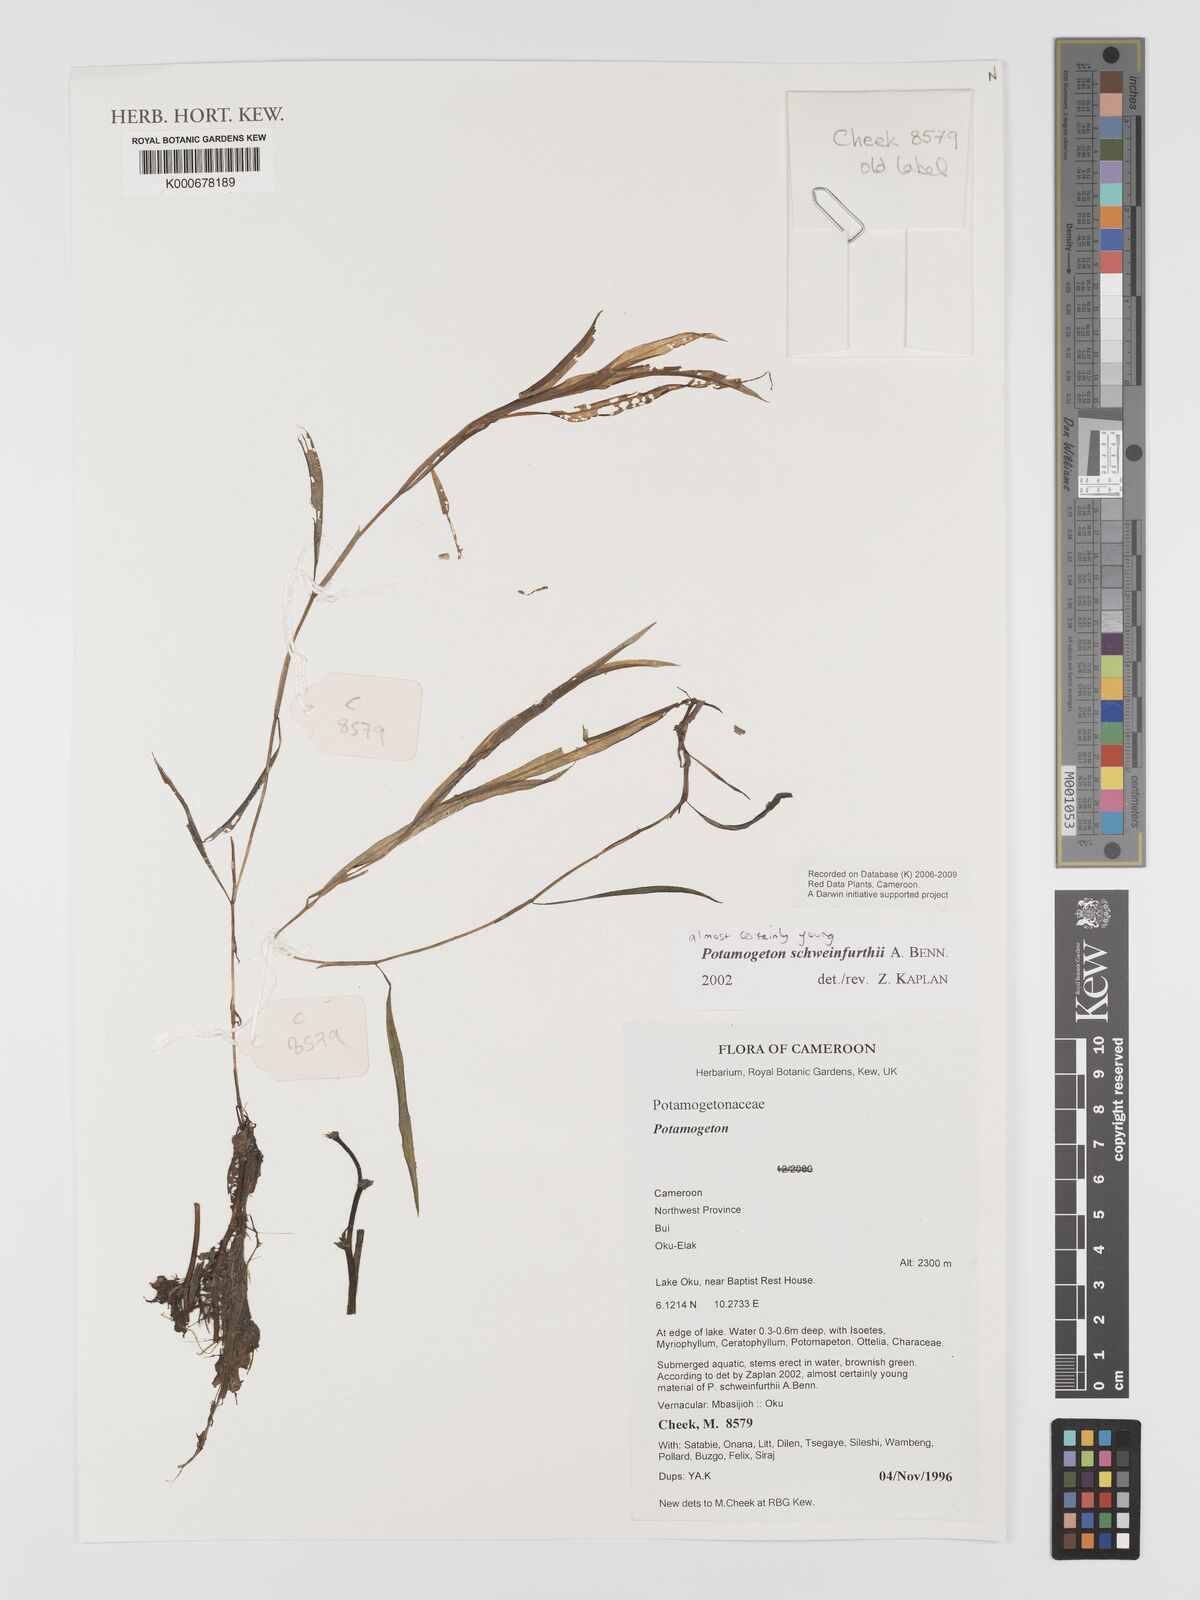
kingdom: Plantae
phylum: Tracheophyta
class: Liliopsida
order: Alismatales
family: Potamogetonaceae
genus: Potamogeton
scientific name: Potamogeton schweinfurthii
